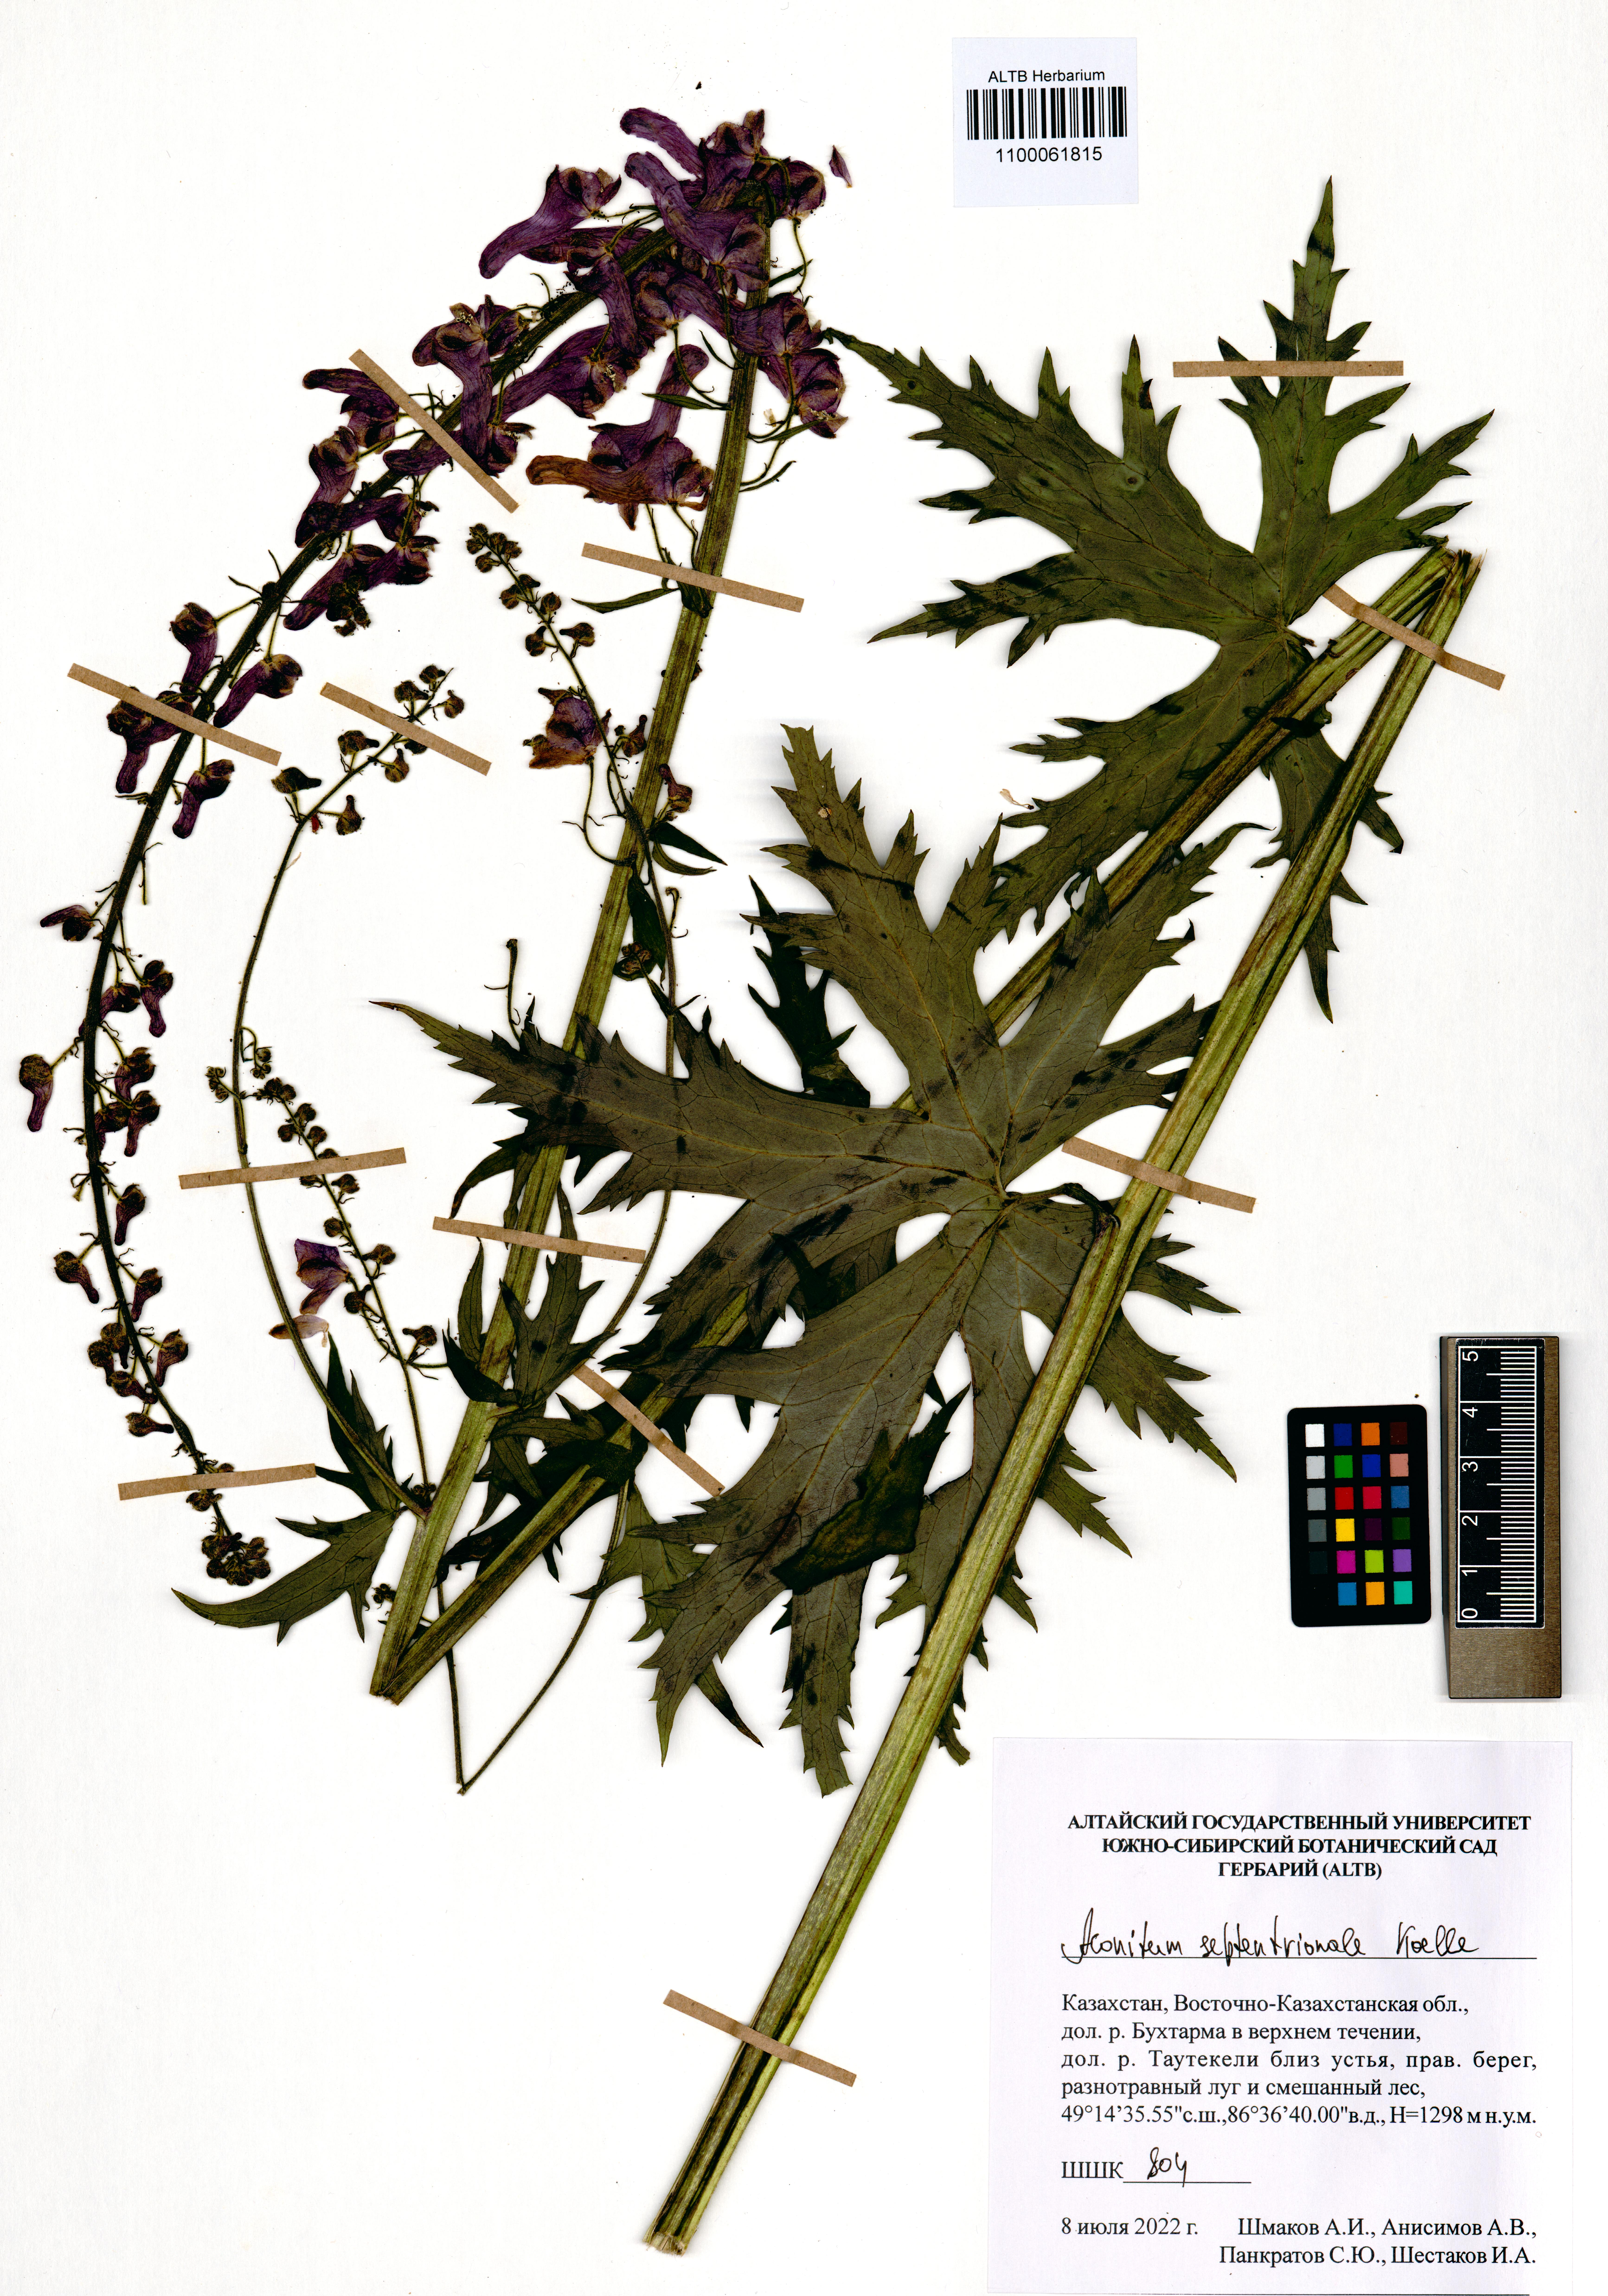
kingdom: Plantae
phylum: Tracheophyta
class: Magnoliopsida
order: Ranunculales
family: Ranunculaceae
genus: Aconitum
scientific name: Aconitum septentrionale
